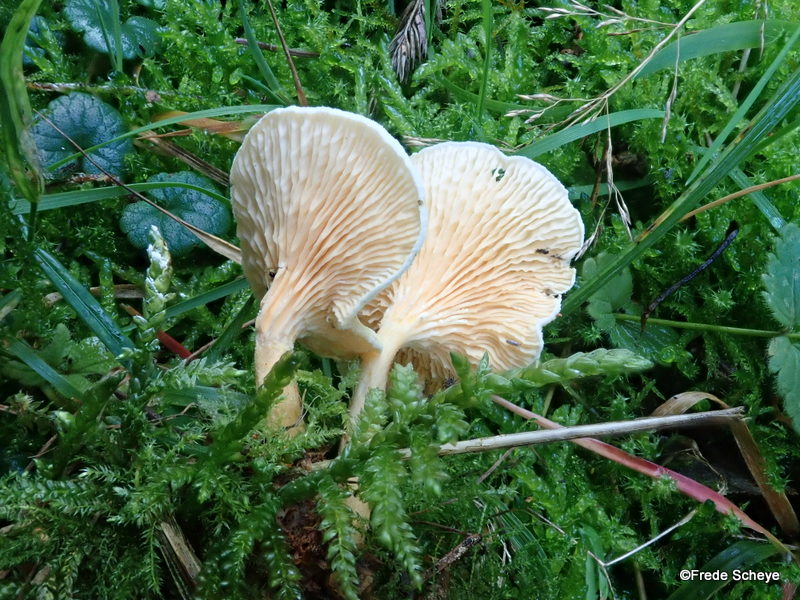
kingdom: Fungi
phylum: Basidiomycota
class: Agaricomycetes
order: Boletales
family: Hygrophoropsidaceae
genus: Hygrophoropsis
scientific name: Hygrophoropsis aurantiaca
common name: almindelig orangekantarel
